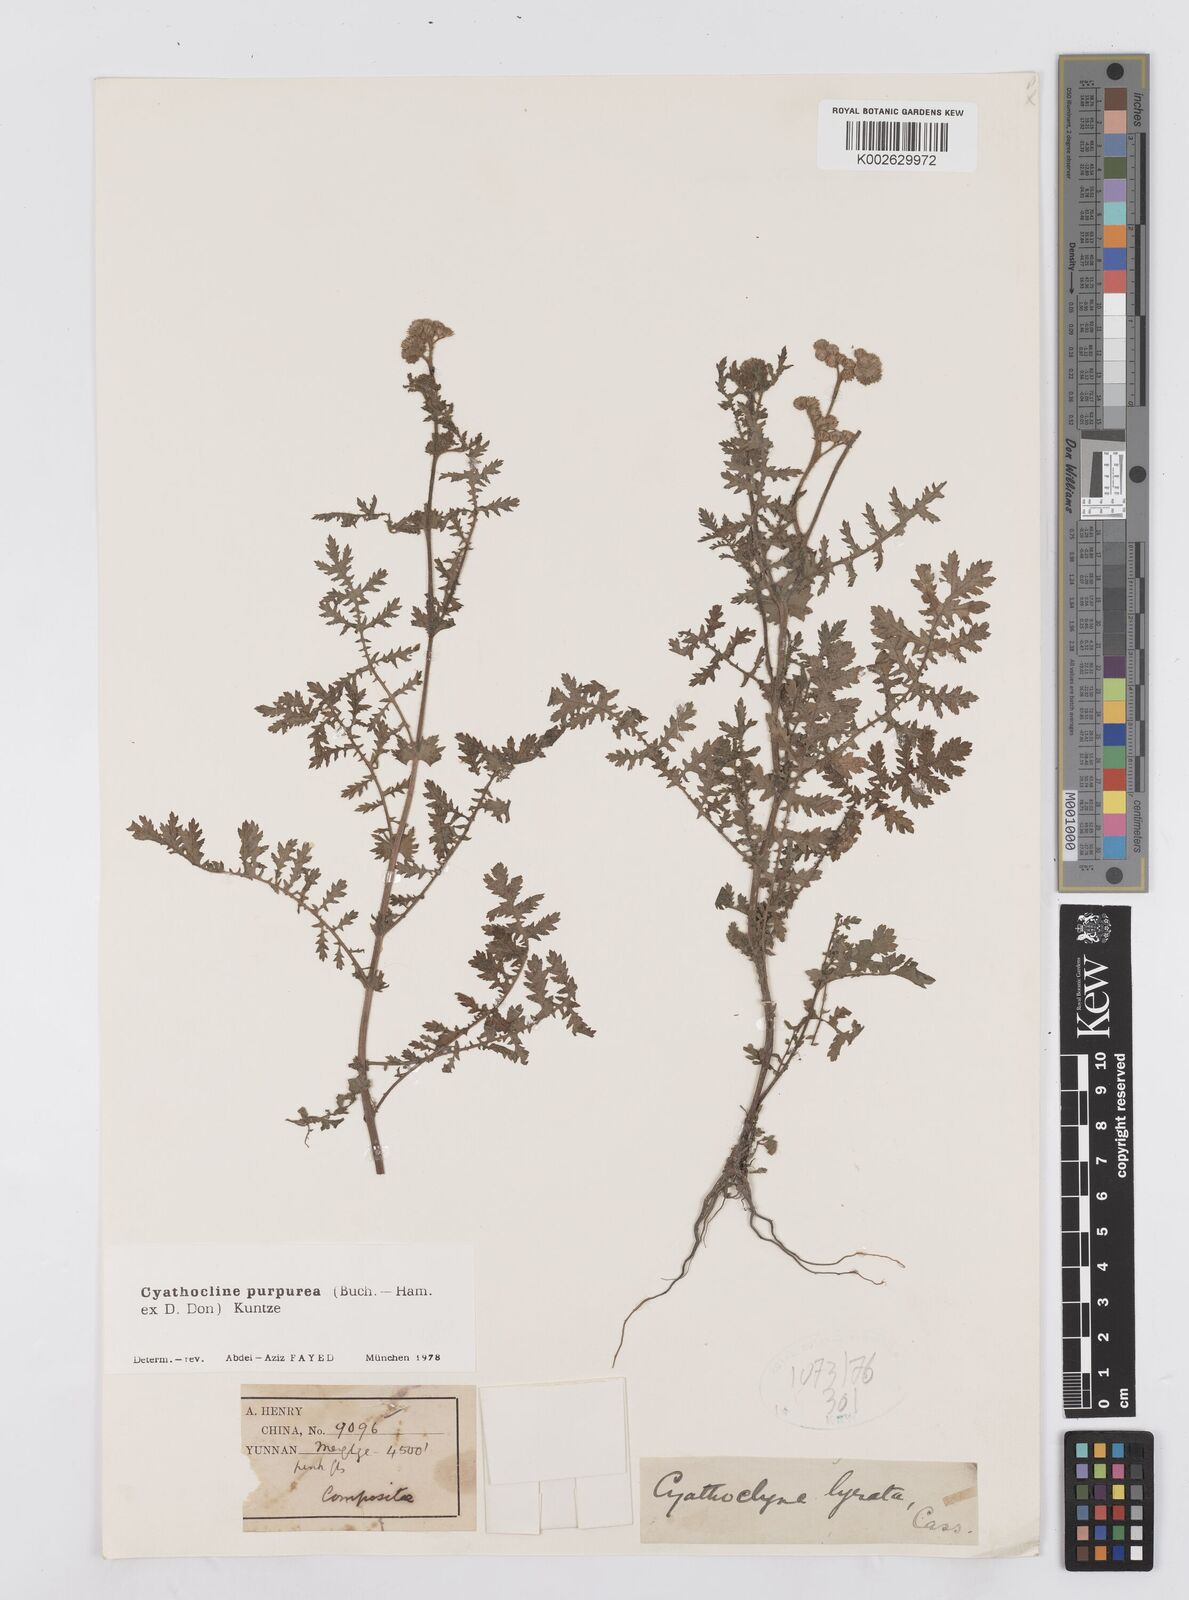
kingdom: Plantae
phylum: Tracheophyta
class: Magnoliopsida
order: Asterales
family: Asteraceae
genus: Cyathocline
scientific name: Cyathocline purpurea
